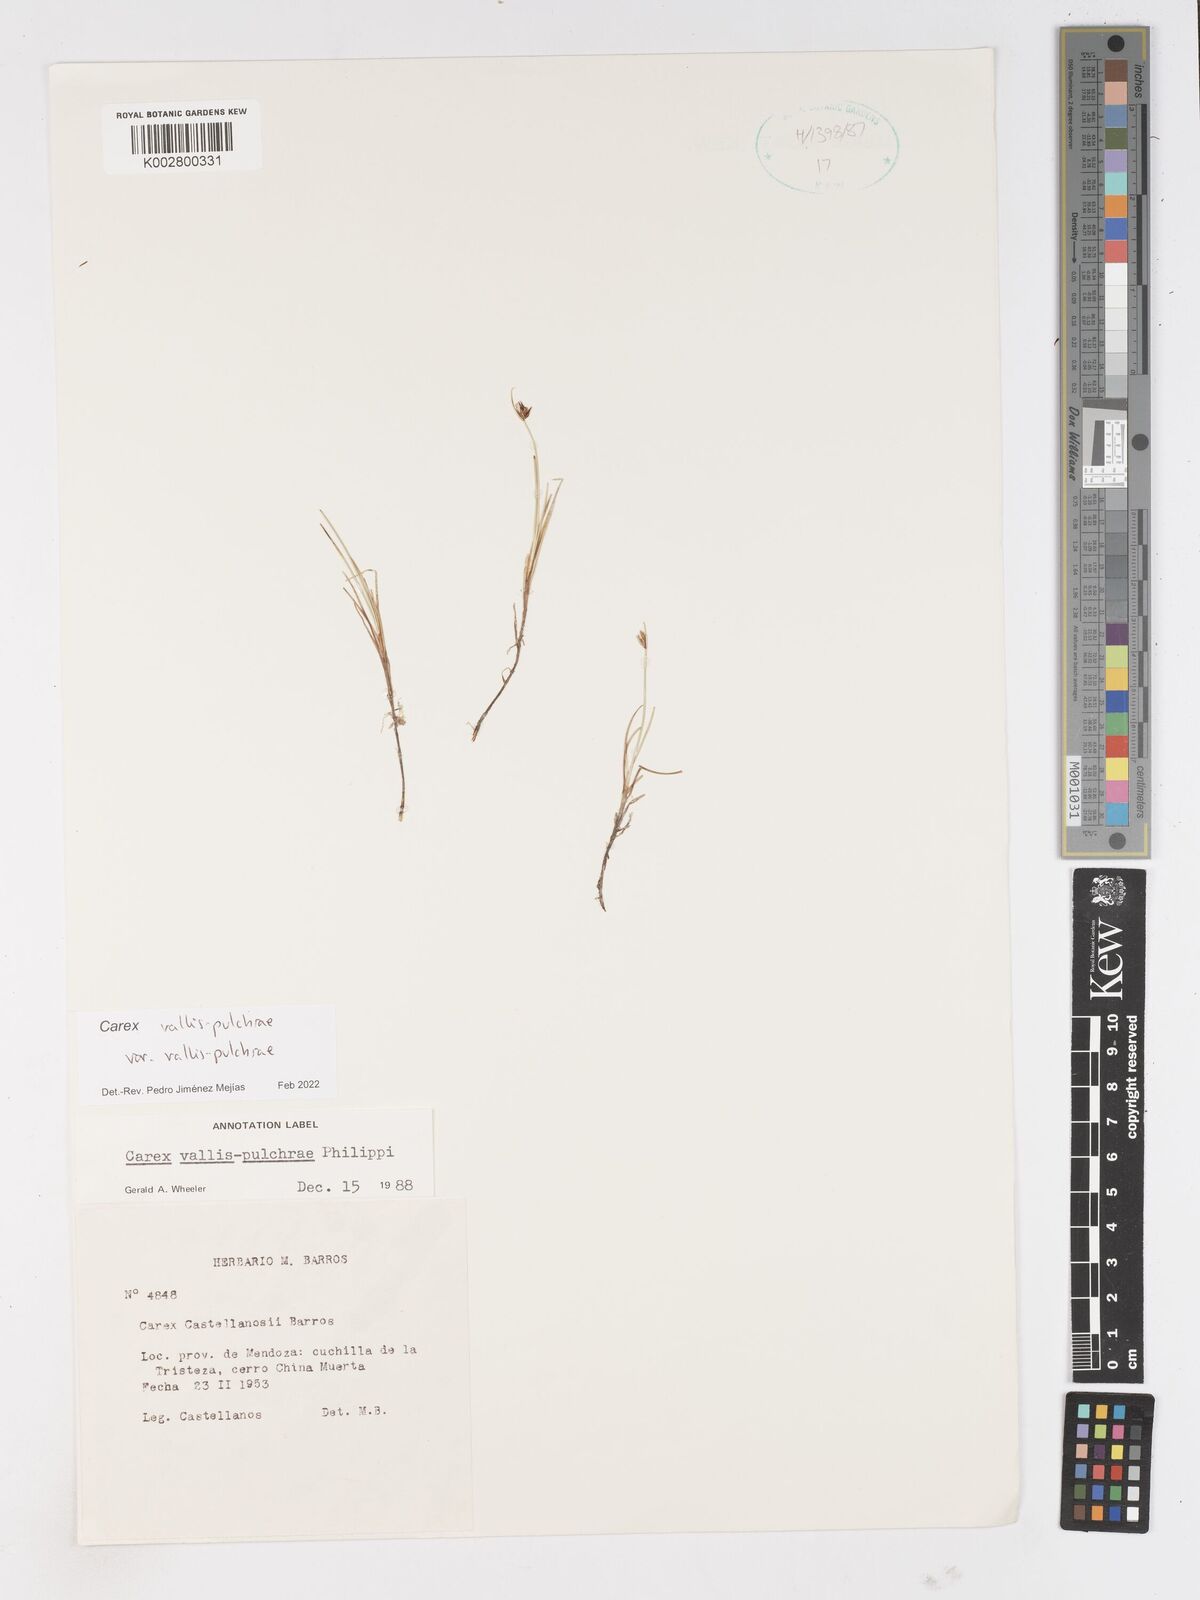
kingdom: Plantae
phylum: Tracheophyta
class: Liliopsida
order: Poales
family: Cyperaceae
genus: Carex
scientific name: Carex vallis-pulchrae
